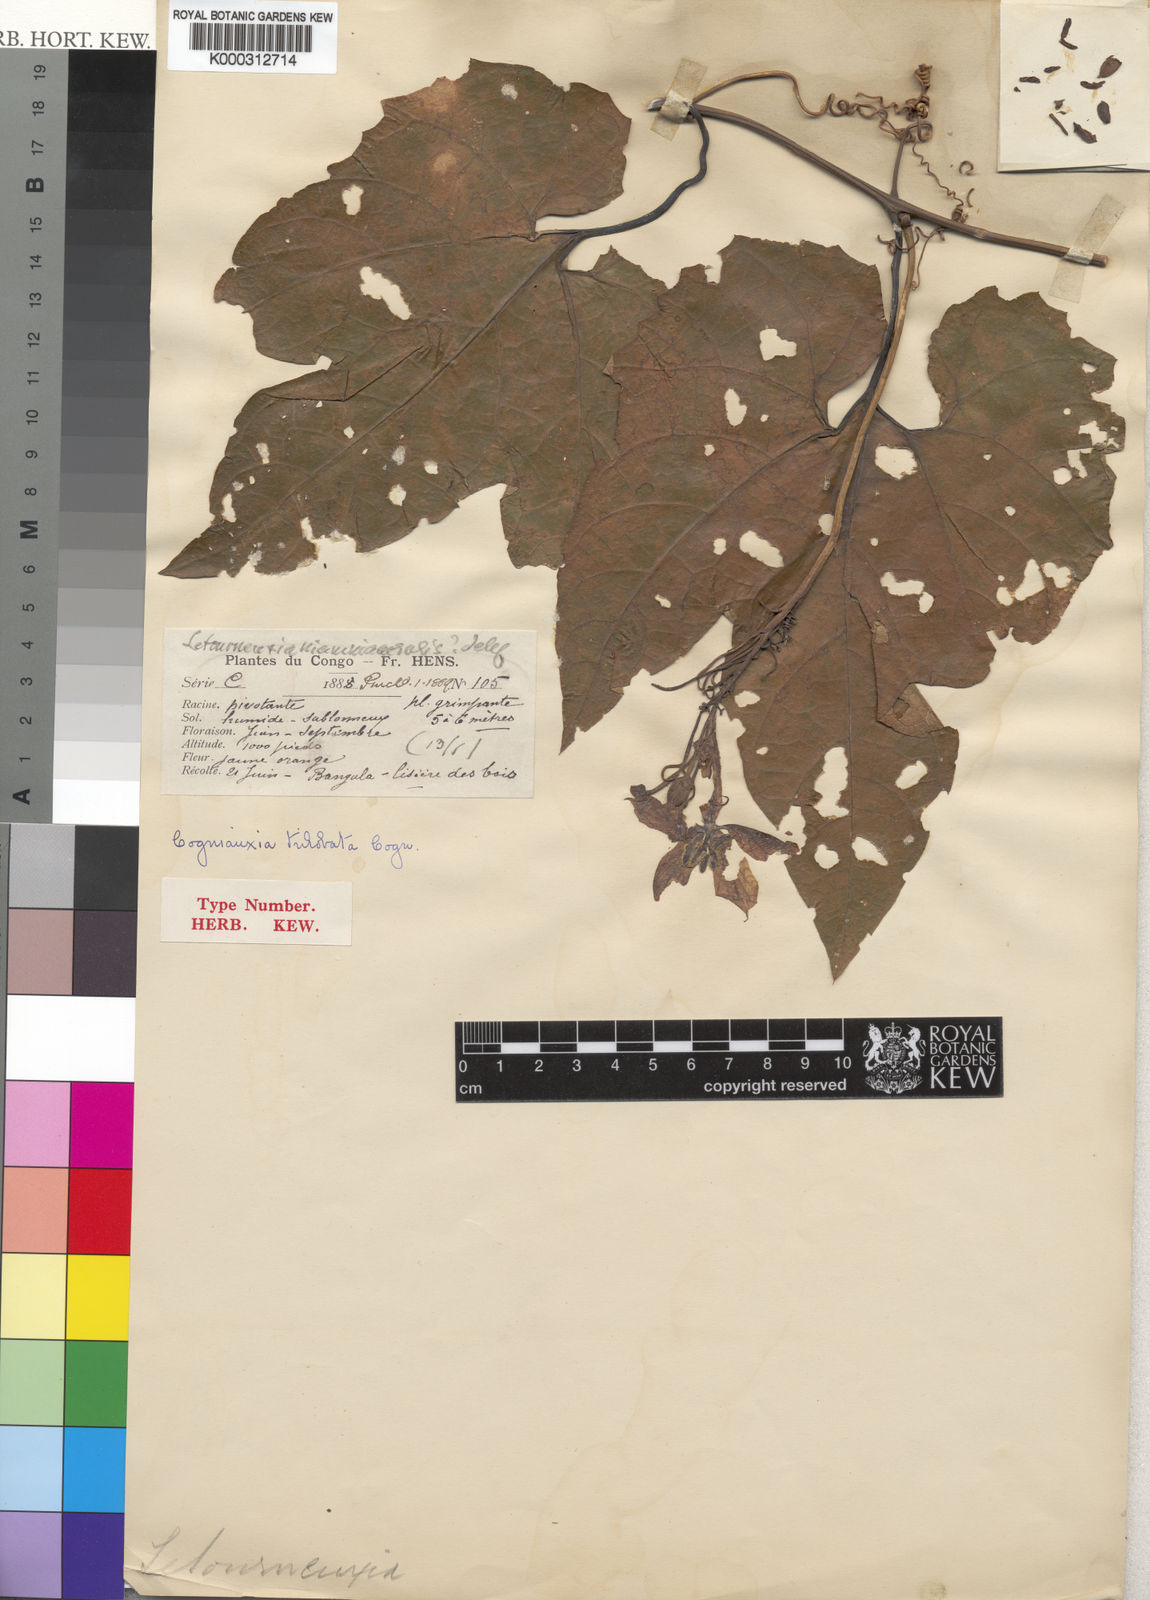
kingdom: Plantae
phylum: Tracheophyta
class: Magnoliopsida
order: Cucurbitales
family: Cucurbitaceae
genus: Cogniauxia
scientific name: Cogniauxia trilobata
